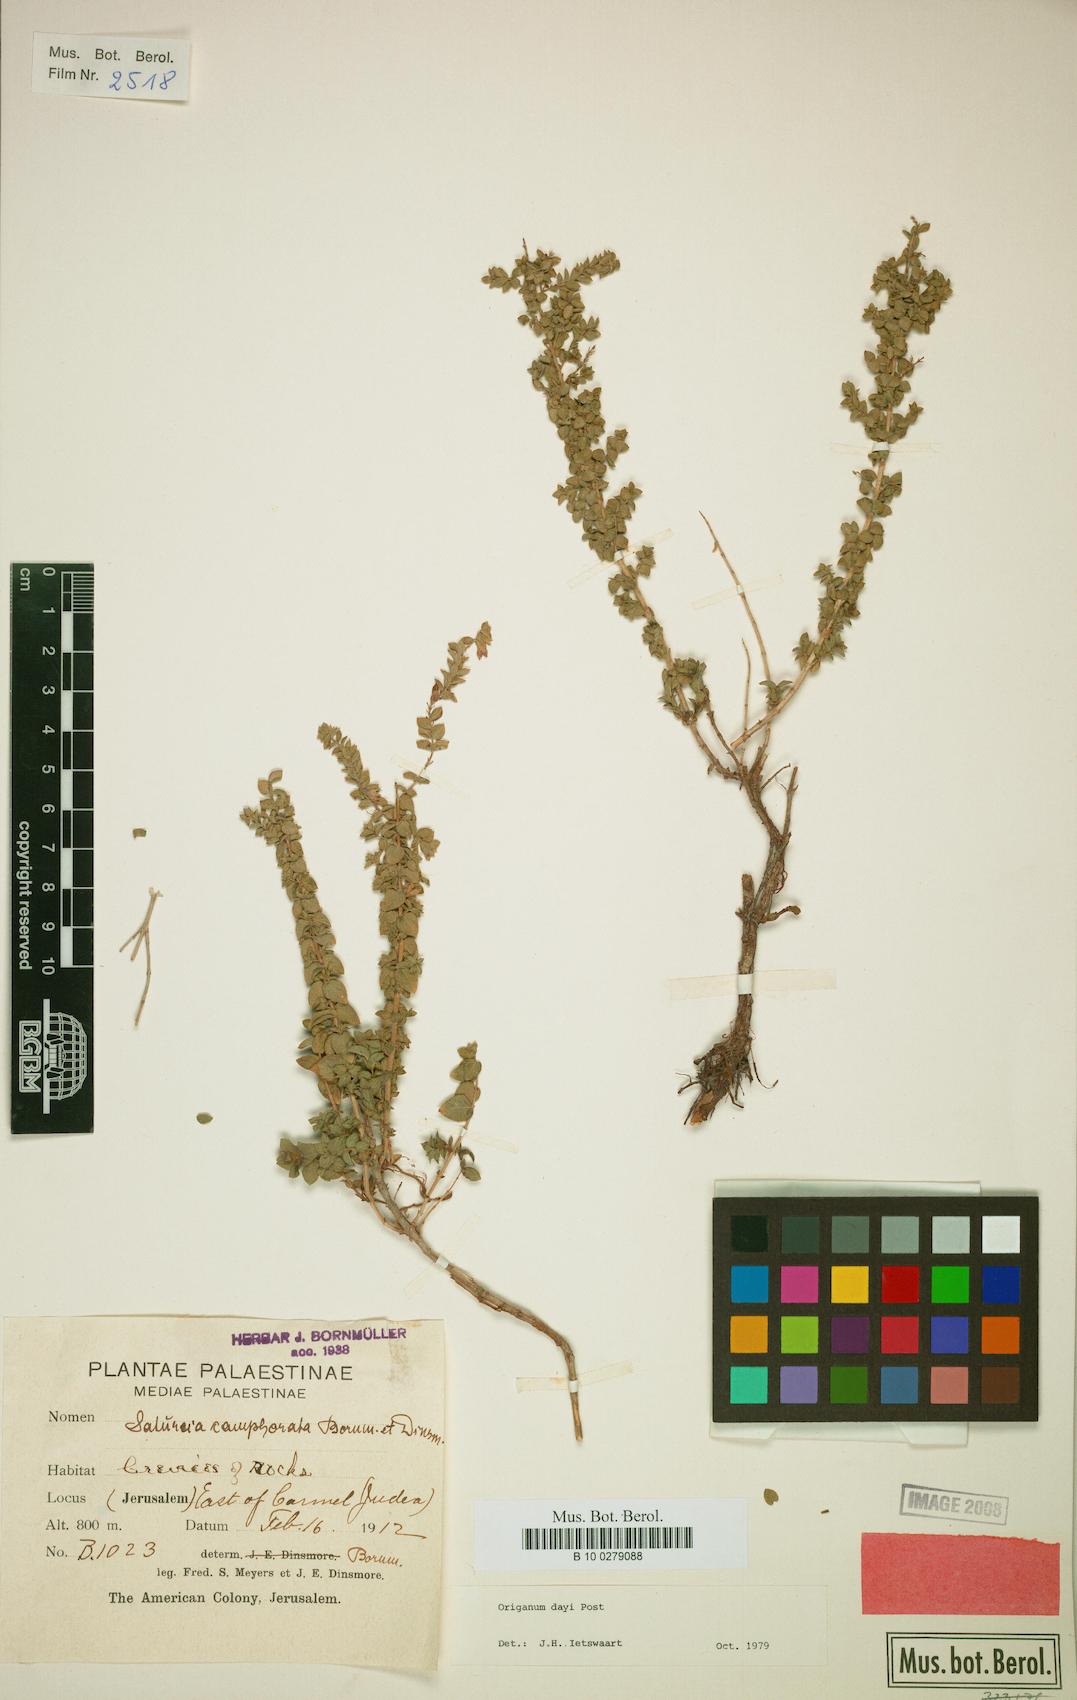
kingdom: Plantae
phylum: Tracheophyta
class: Magnoliopsida
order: Lamiales
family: Lamiaceae
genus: Origanum
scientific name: Origanum dayi
